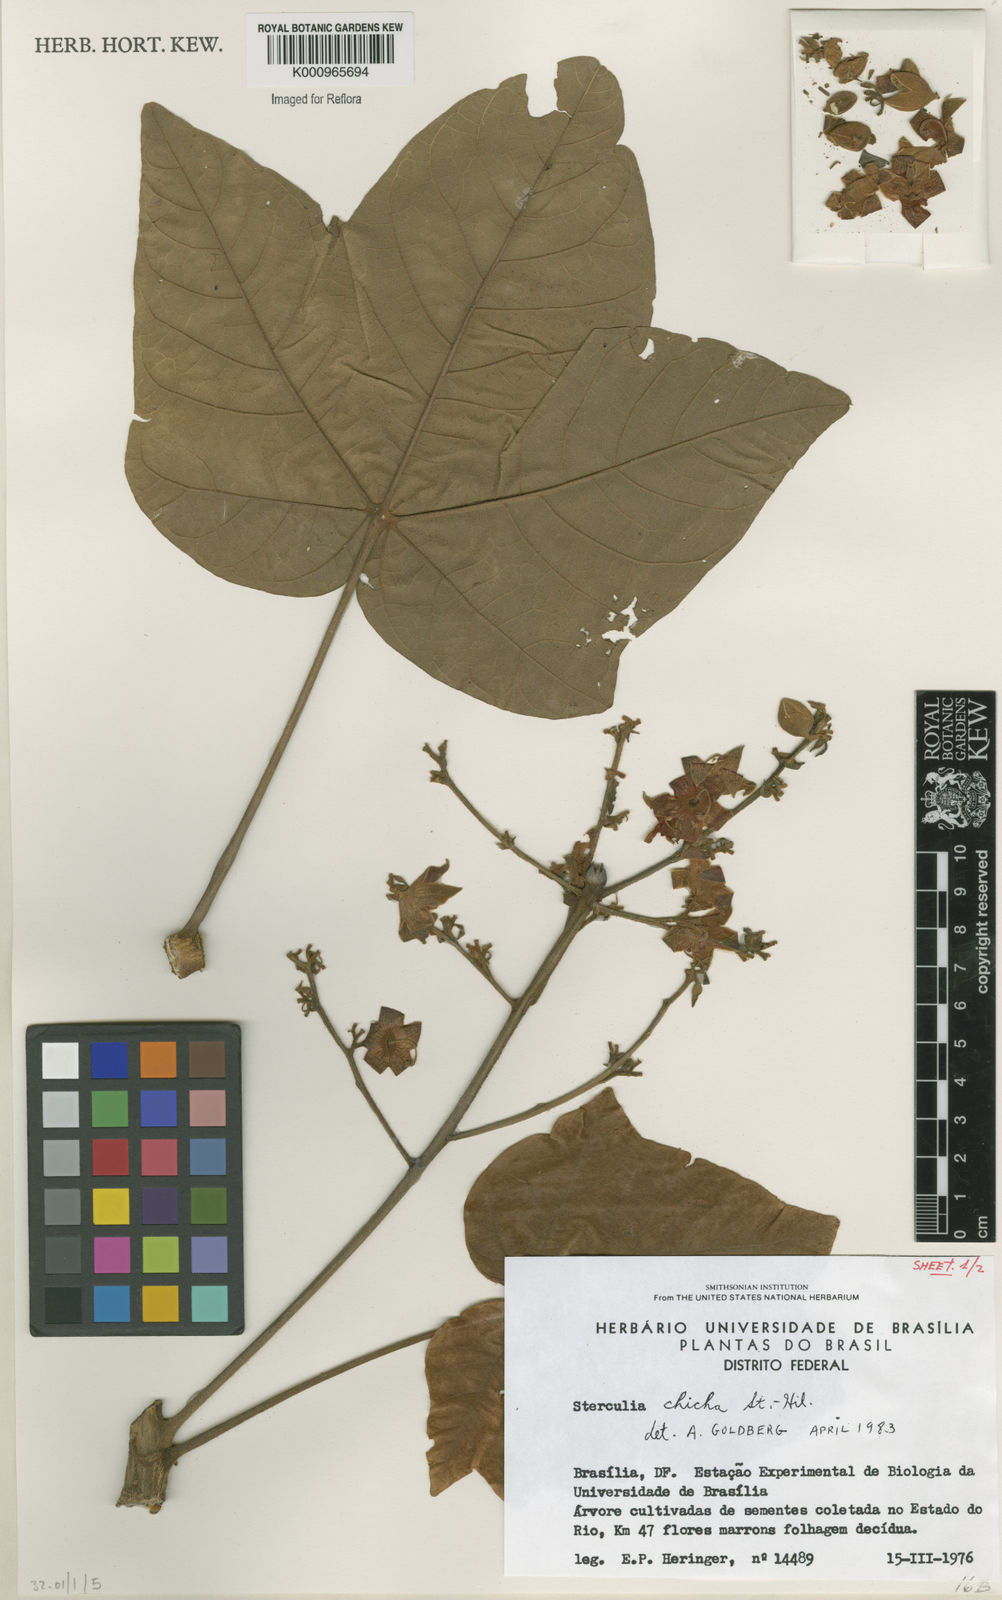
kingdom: Plantae
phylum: Tracheophyta
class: Magnoliopsida
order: Malvales
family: Malvaceae
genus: Sterculia
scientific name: Sterculia apetala
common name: Panama tree
